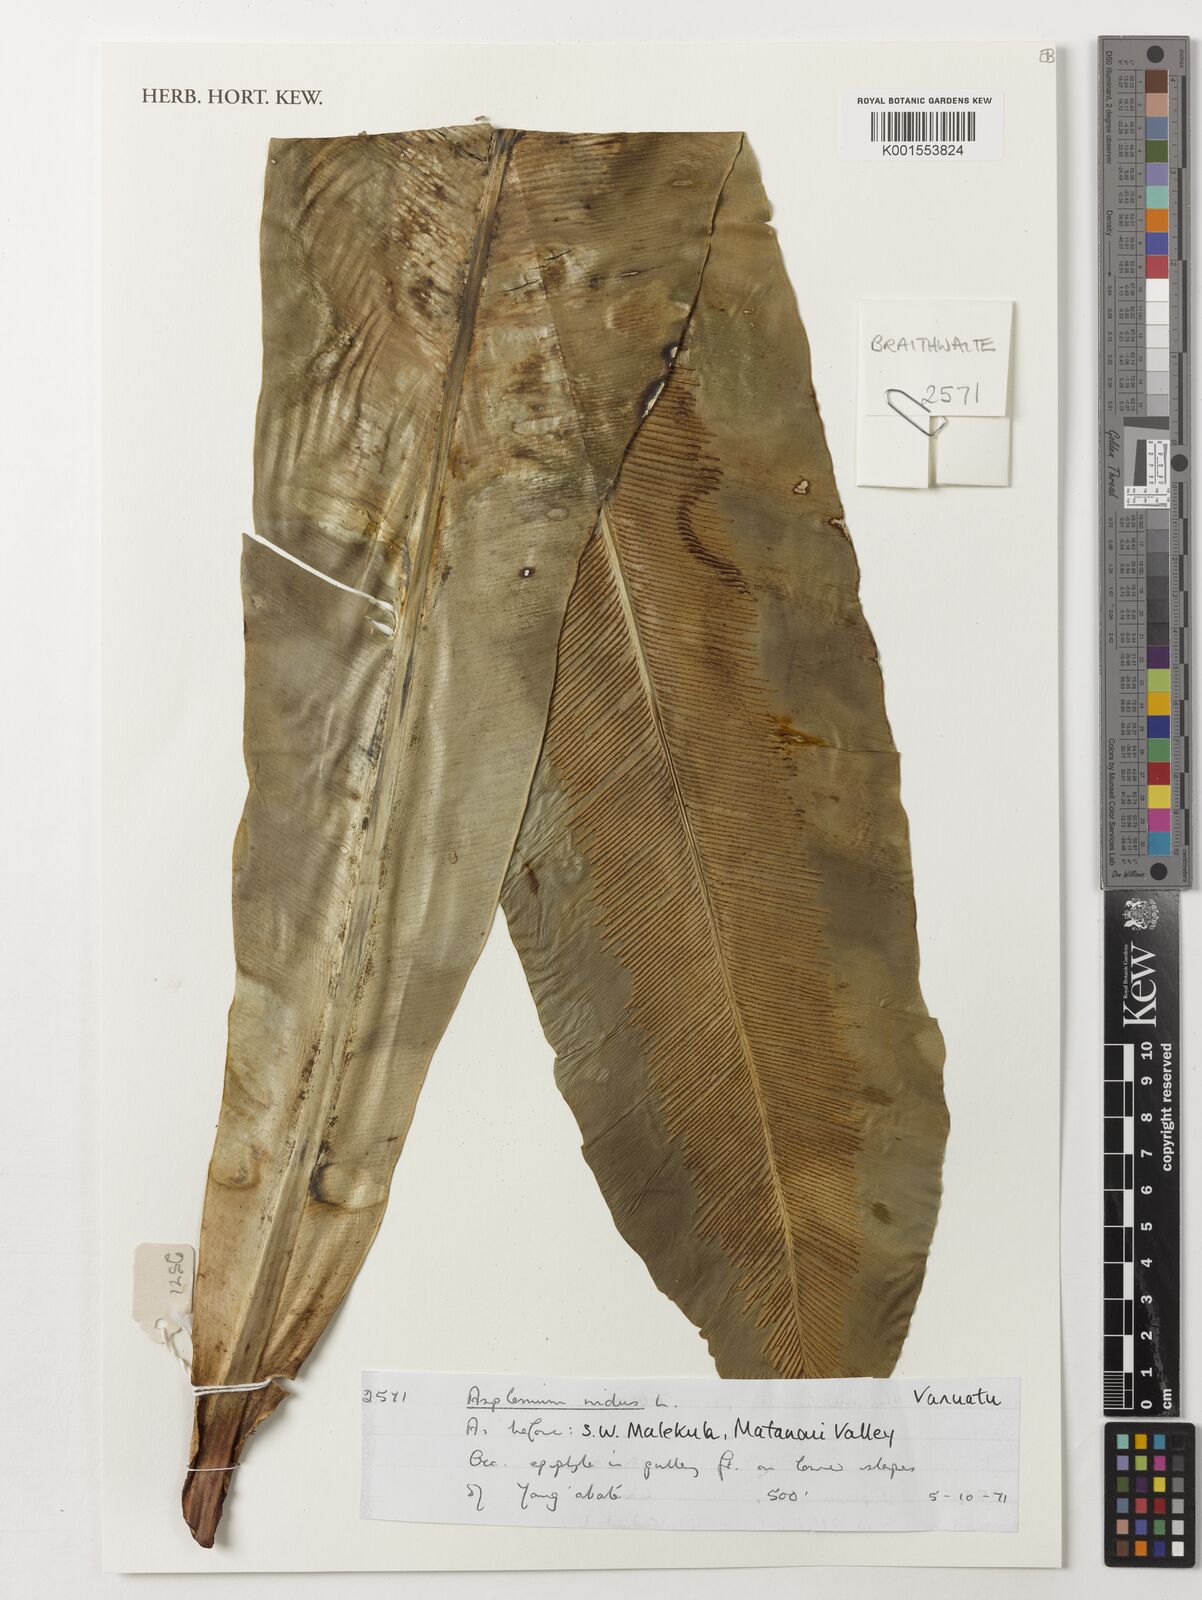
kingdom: Plantae
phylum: Tracheophyta
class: Polypodiopsida
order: Polypodiales
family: Aspleniaceae
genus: Asplenium
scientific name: Asplenium nidus
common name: Bird's-nest fern
